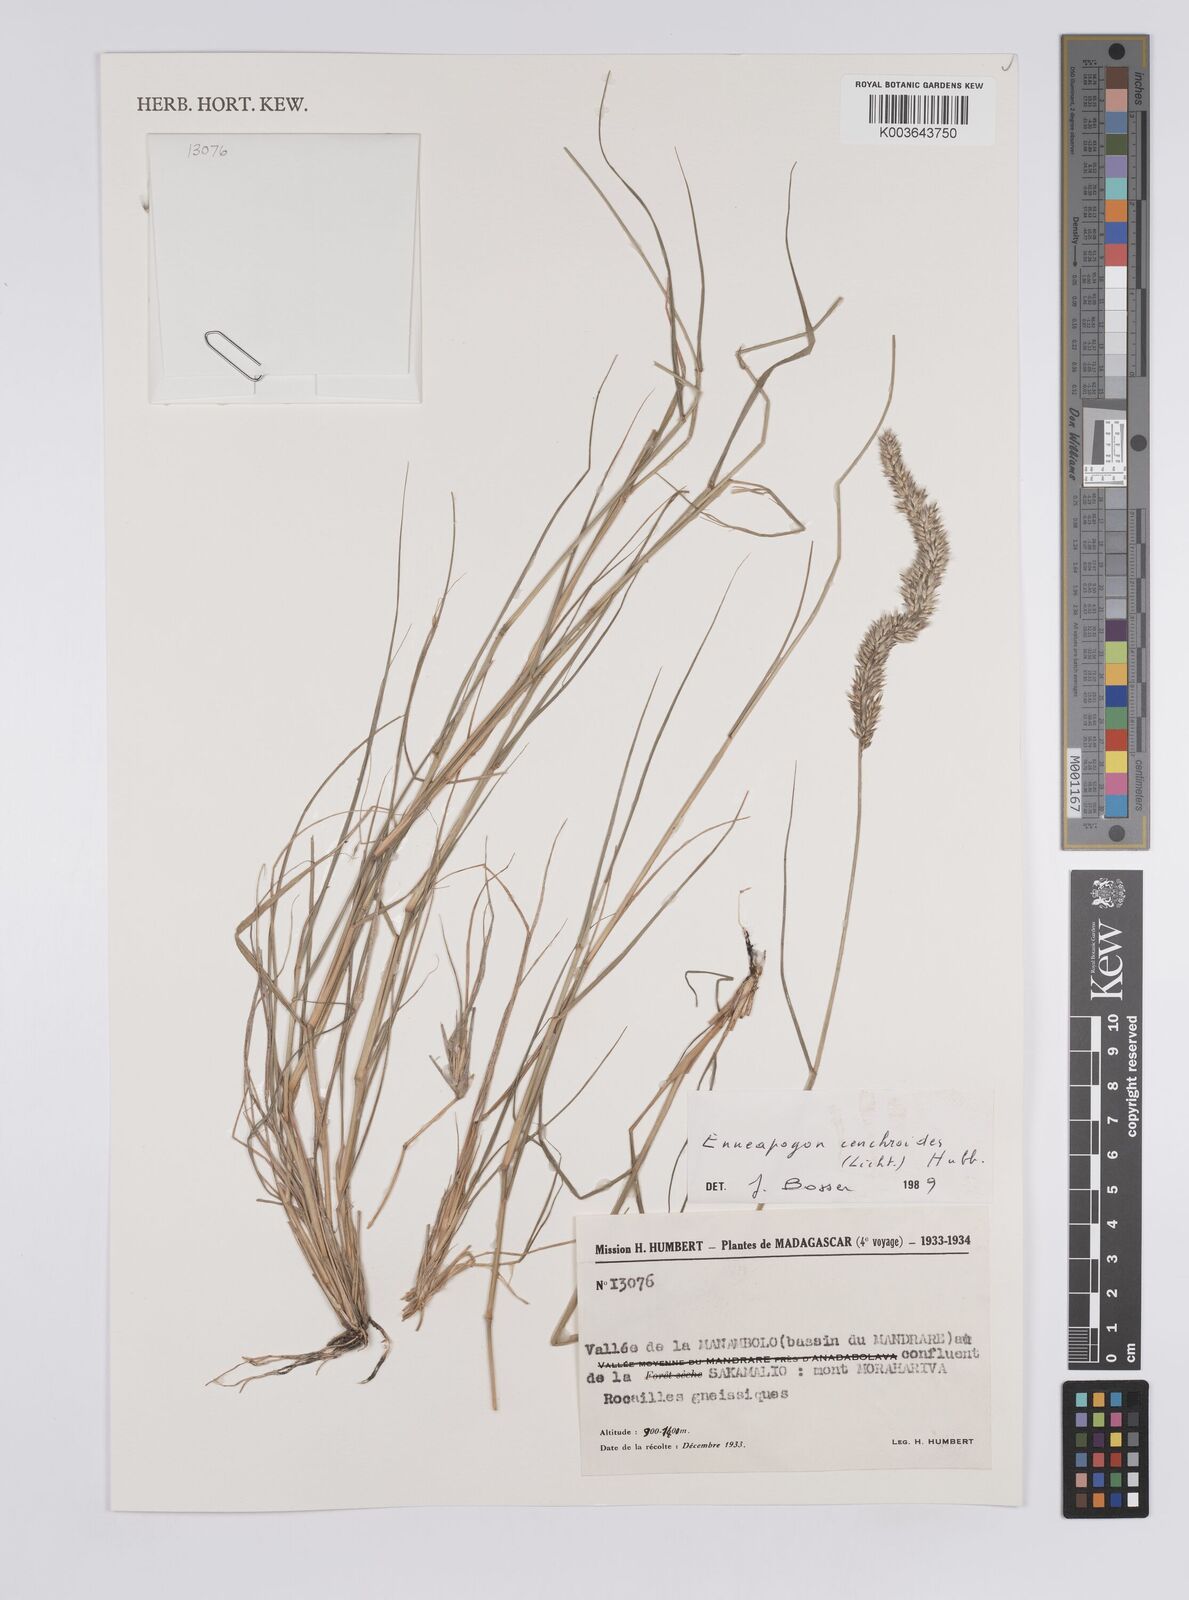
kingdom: Plantae
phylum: Tracheophyta
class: Liliopsida
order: Poales
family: Poaceae
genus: Enneapogon
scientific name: Enneapogon cenchroides
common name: Soft feather pappusgrass
